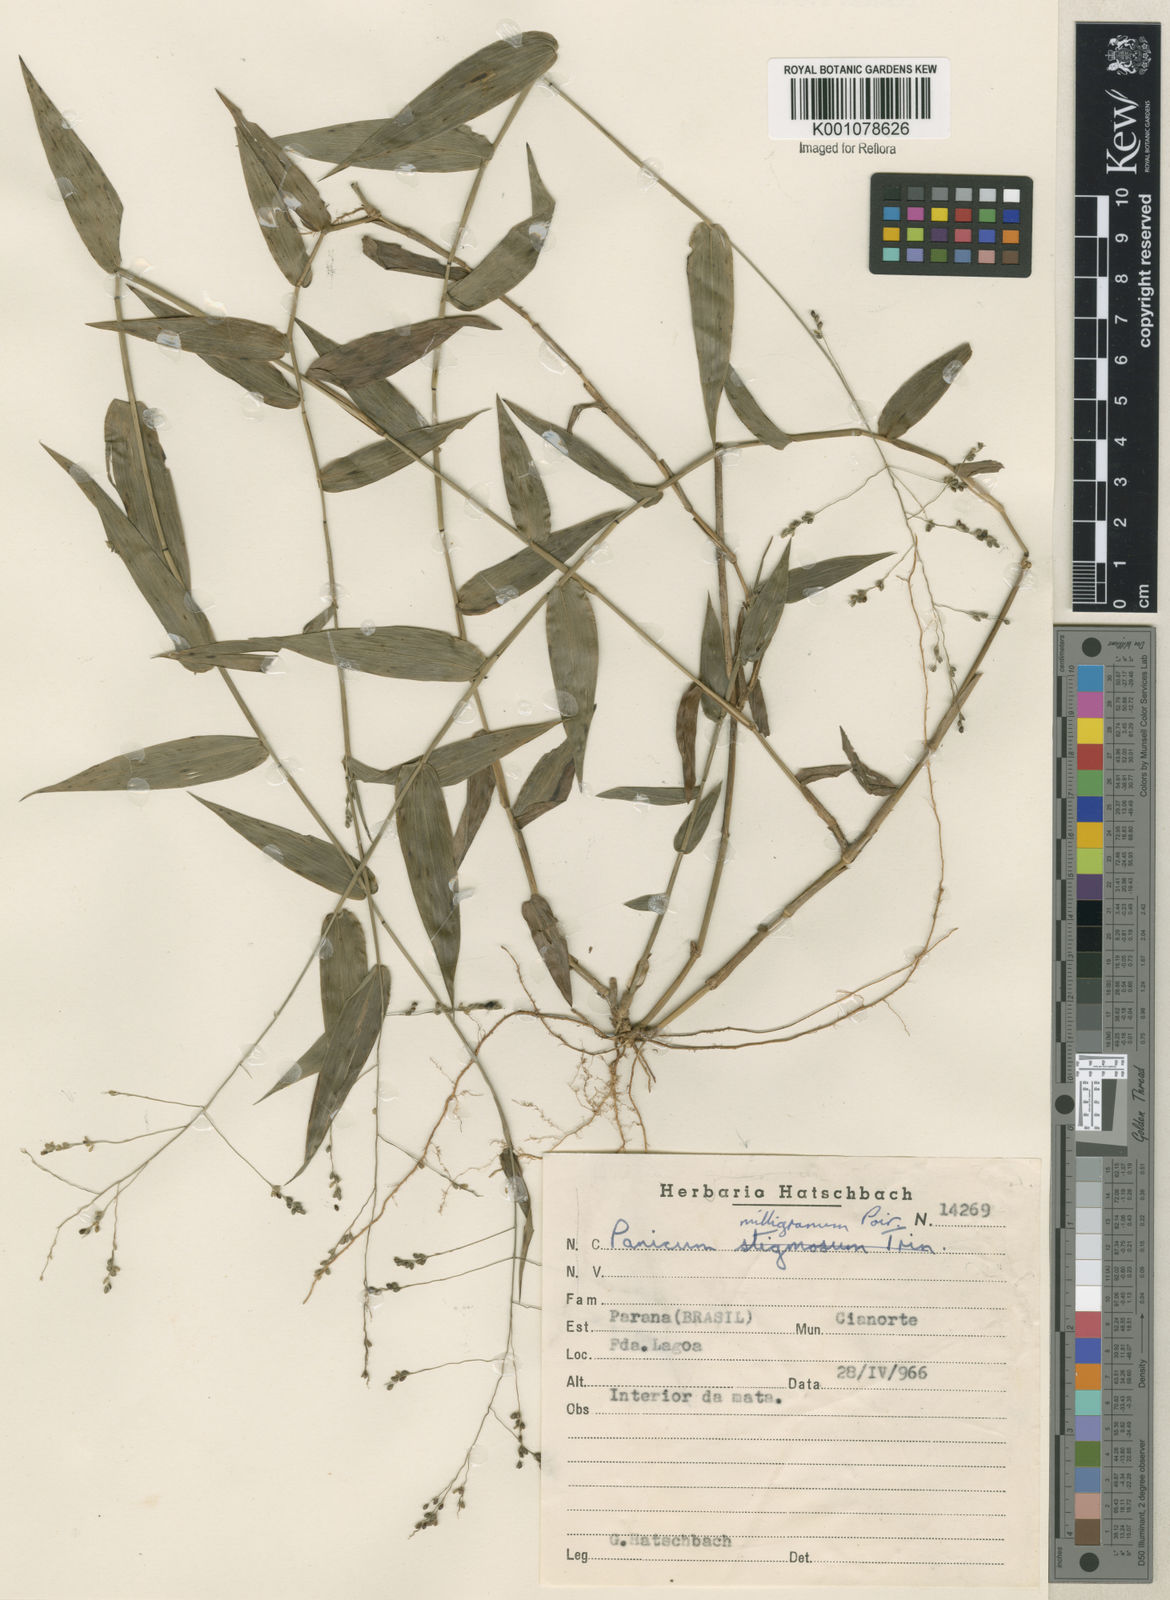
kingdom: Plantae
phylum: Tracheophyta
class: Liliopsida
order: Poales
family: Poaceae
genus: Panicum
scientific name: Panicum sellowii
